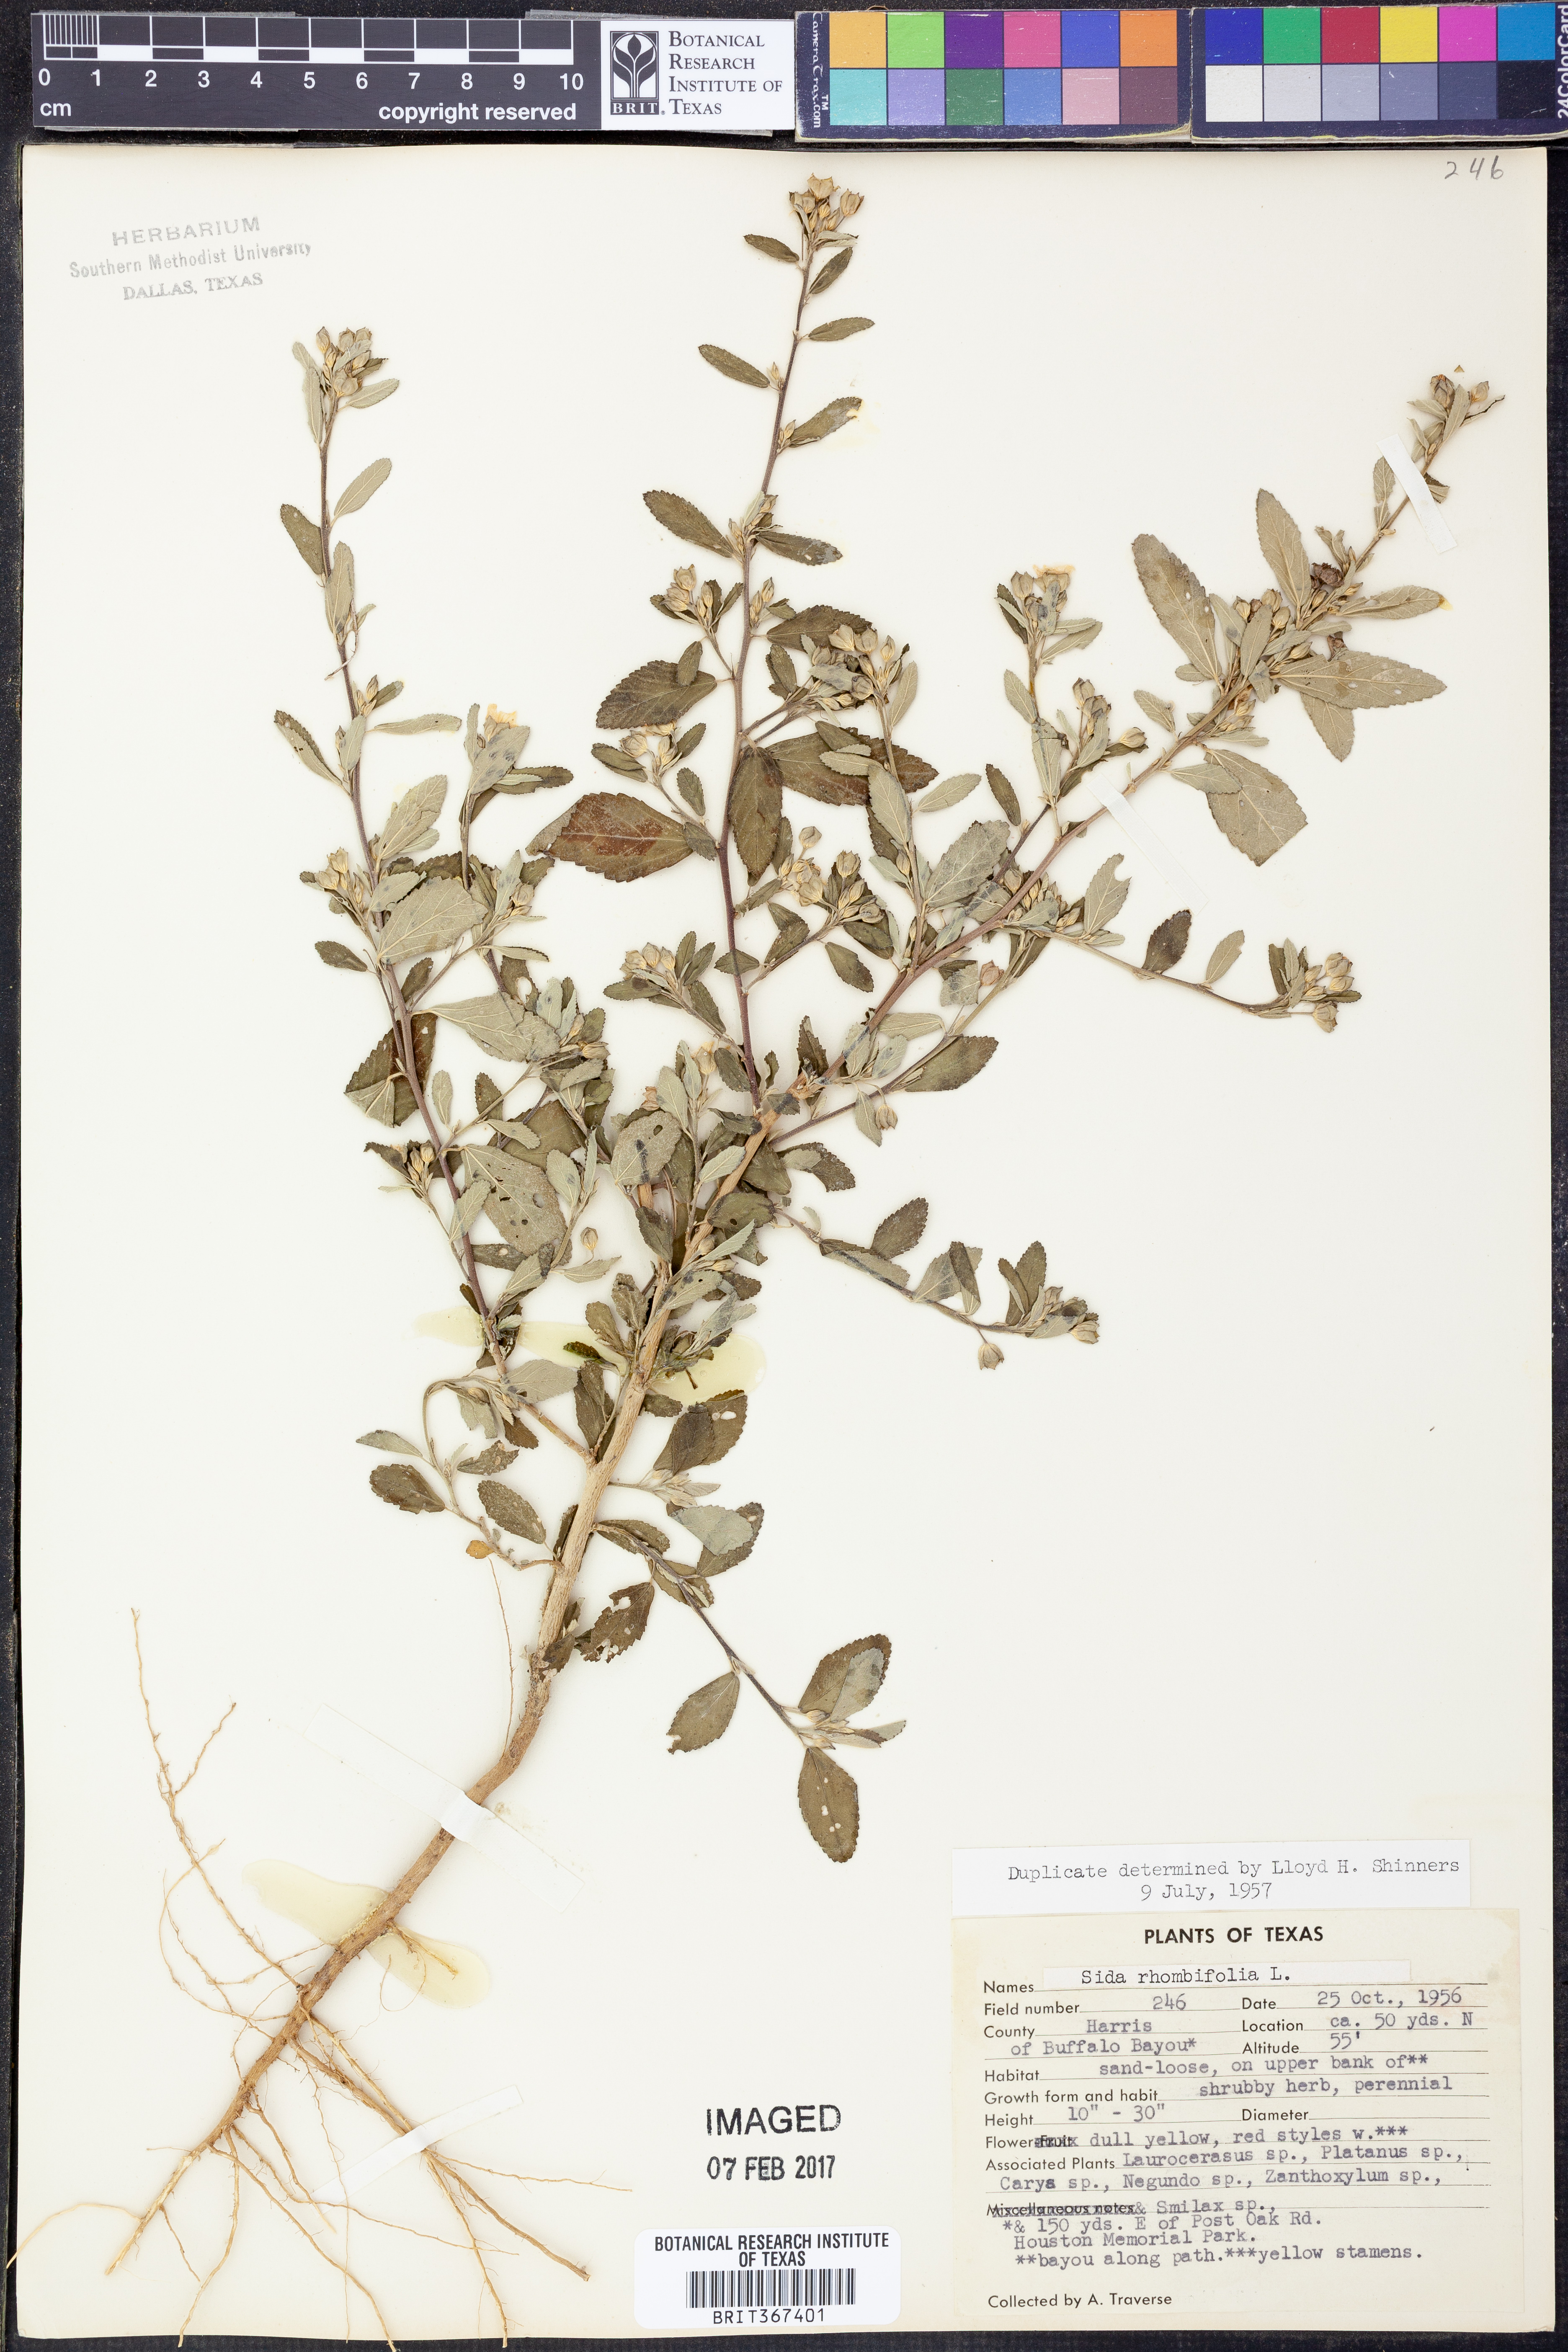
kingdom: Plantae
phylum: Tracheophyta
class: Magnoliopsida
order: Malvales
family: Malvaceae
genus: Sida
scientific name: Sida rhombifolia
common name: Queensland-hemp
